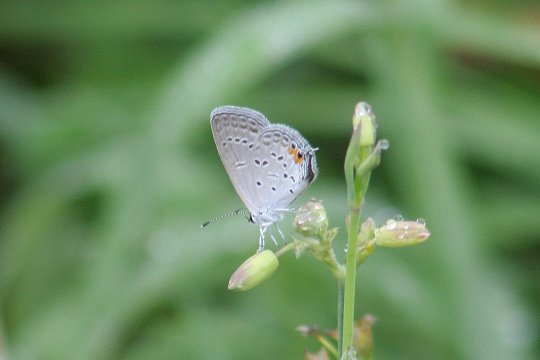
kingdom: Animalia
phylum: Arthropoda
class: Insecta
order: Lepidoptera
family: Lycaenidae
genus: Elkalyce
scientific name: Elkalyce comyntas
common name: Eastern Tailed-Blue
